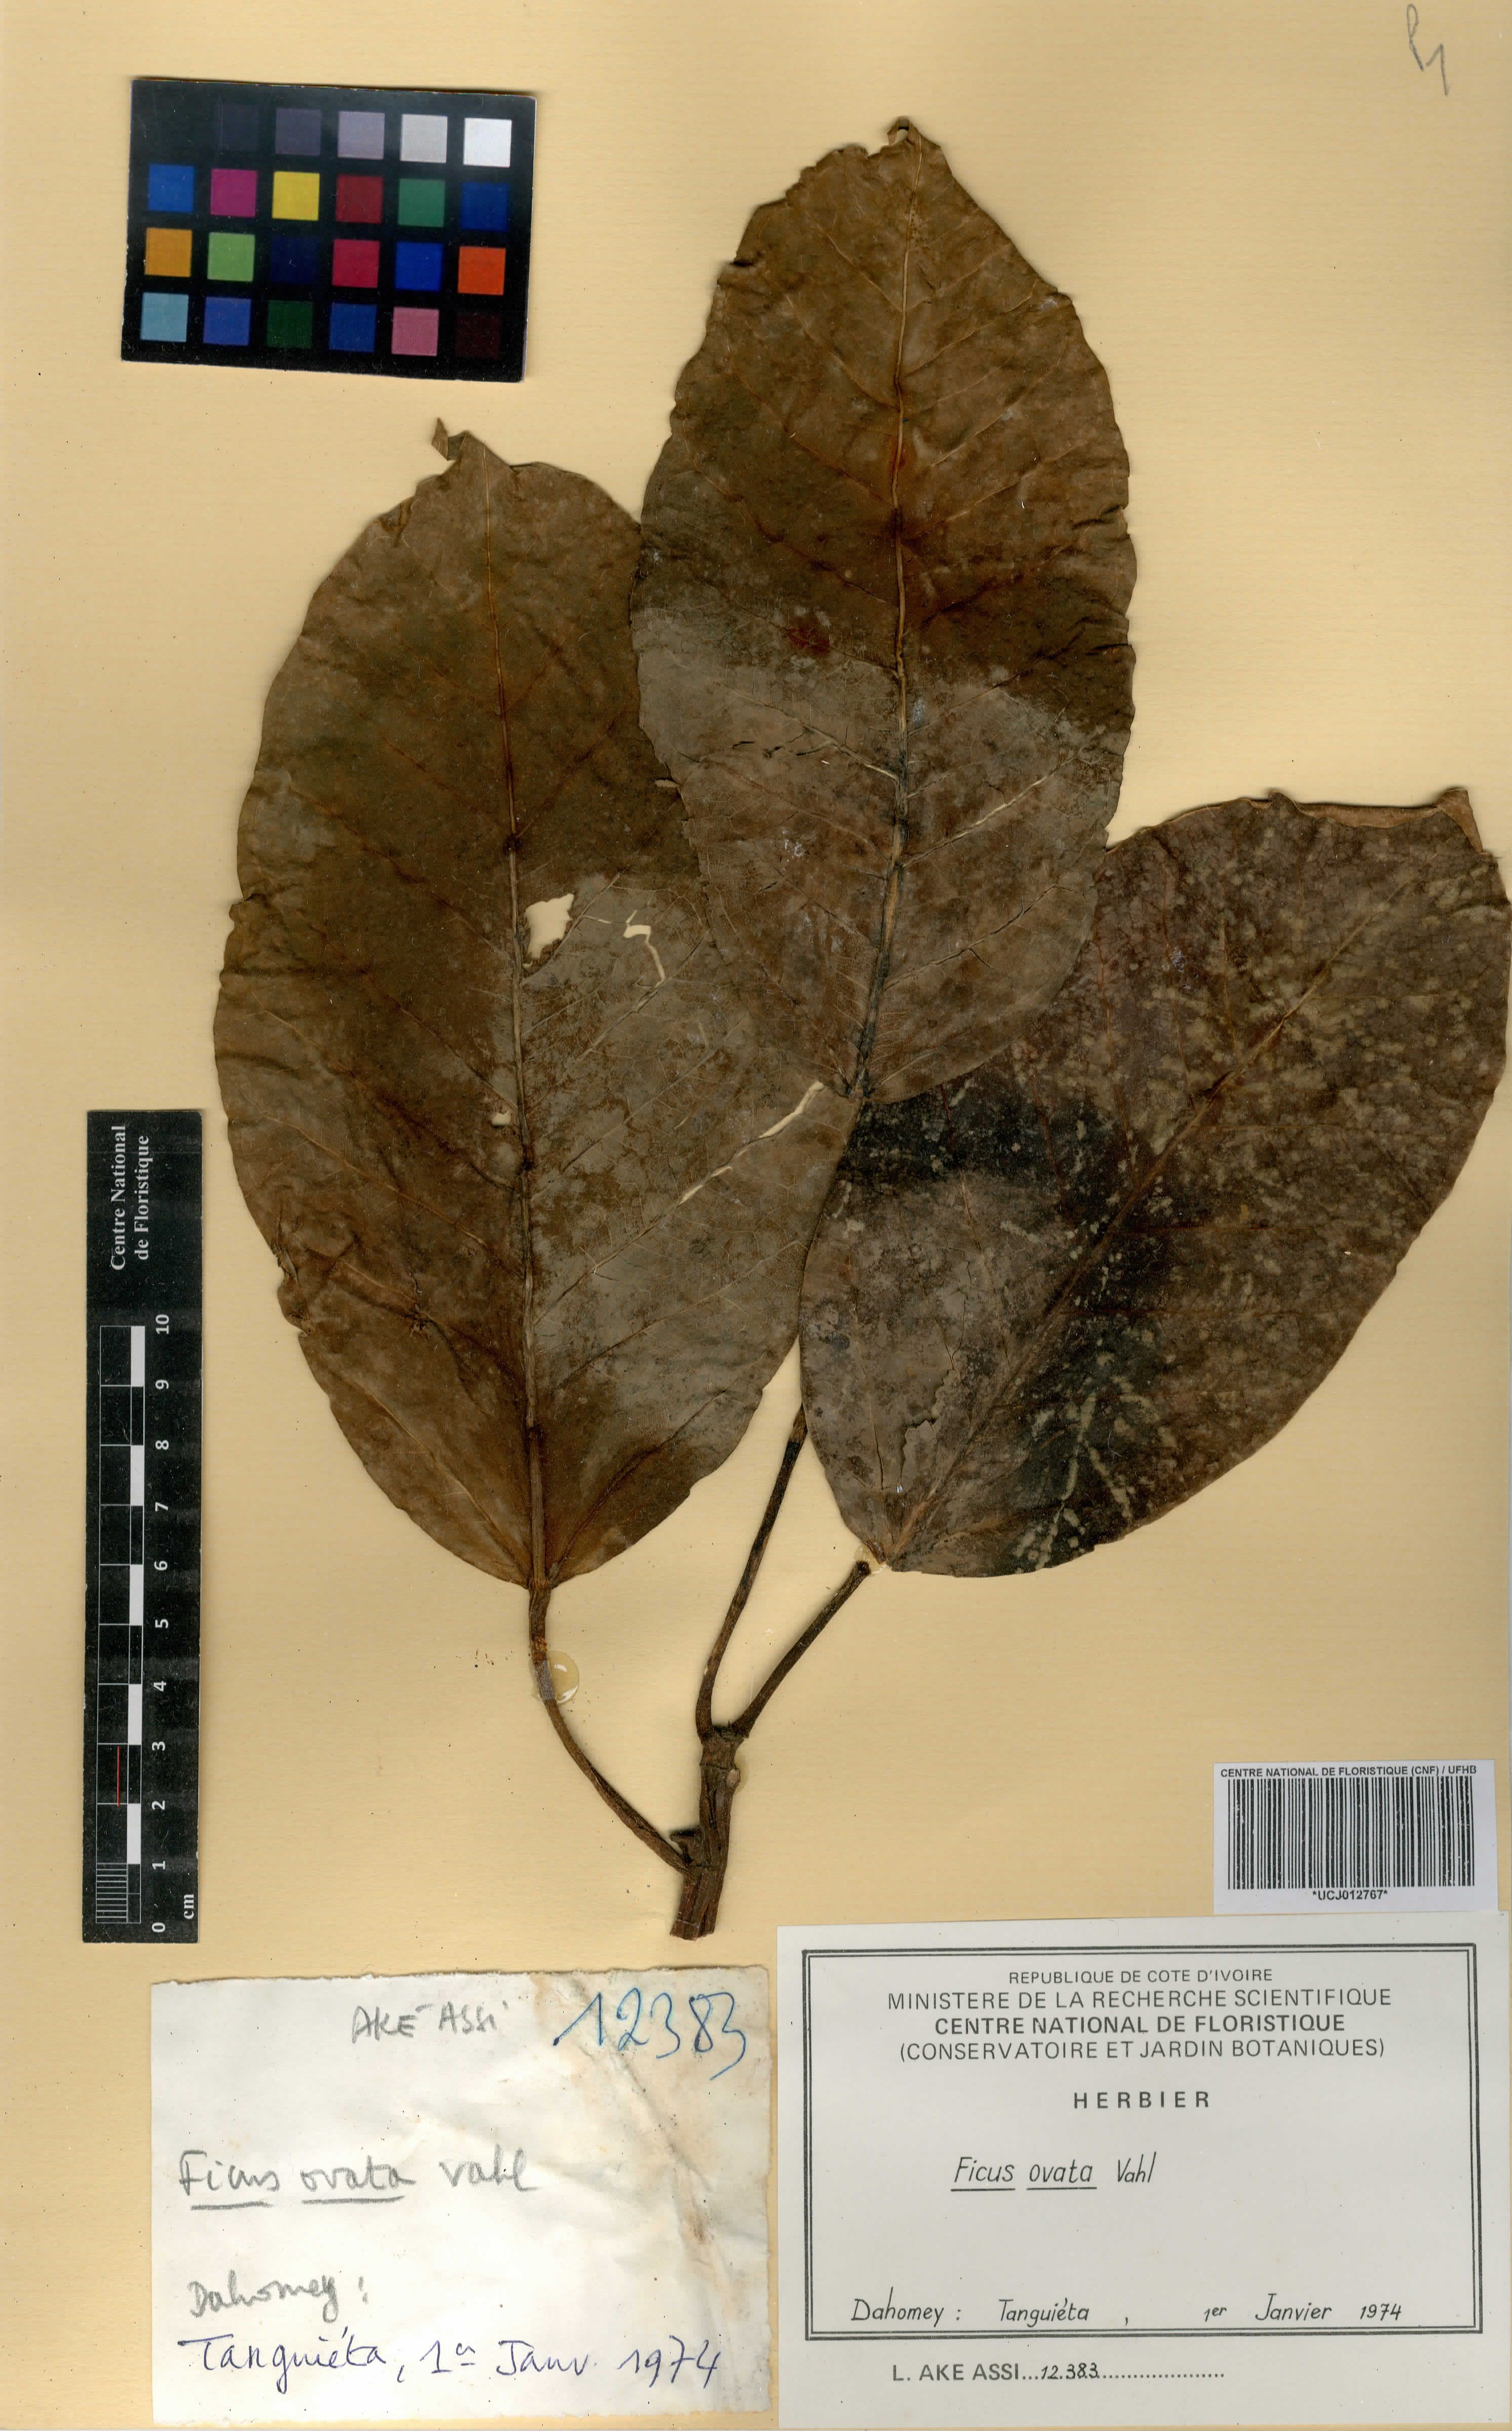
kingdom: Plantae
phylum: Tracheophyta
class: Magnoliopsida
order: Rosales
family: Moraceae
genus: Ficus
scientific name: Ficus laurifolia
